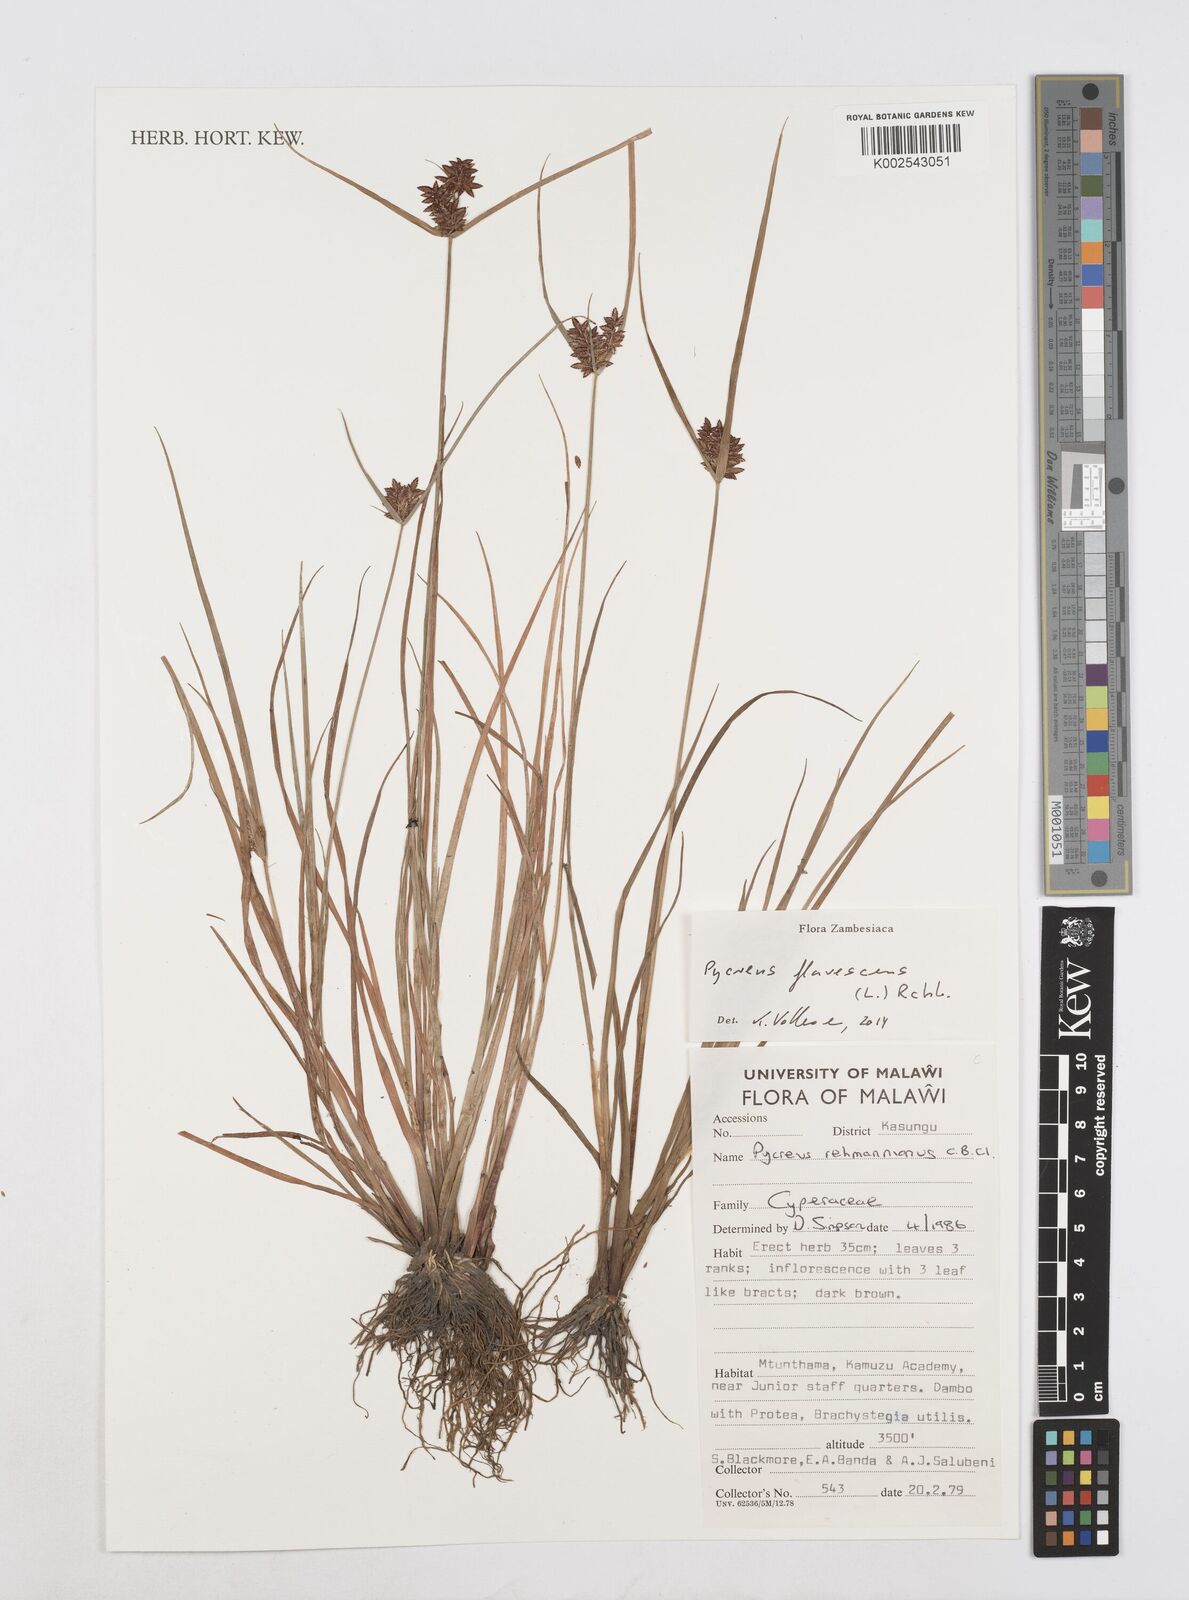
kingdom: Plantae
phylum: Tracheophyta
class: Liliopsida
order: Poales
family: Cyperaceae
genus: Cyperus
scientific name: Cyperus flavescens
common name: Yellow galingale
